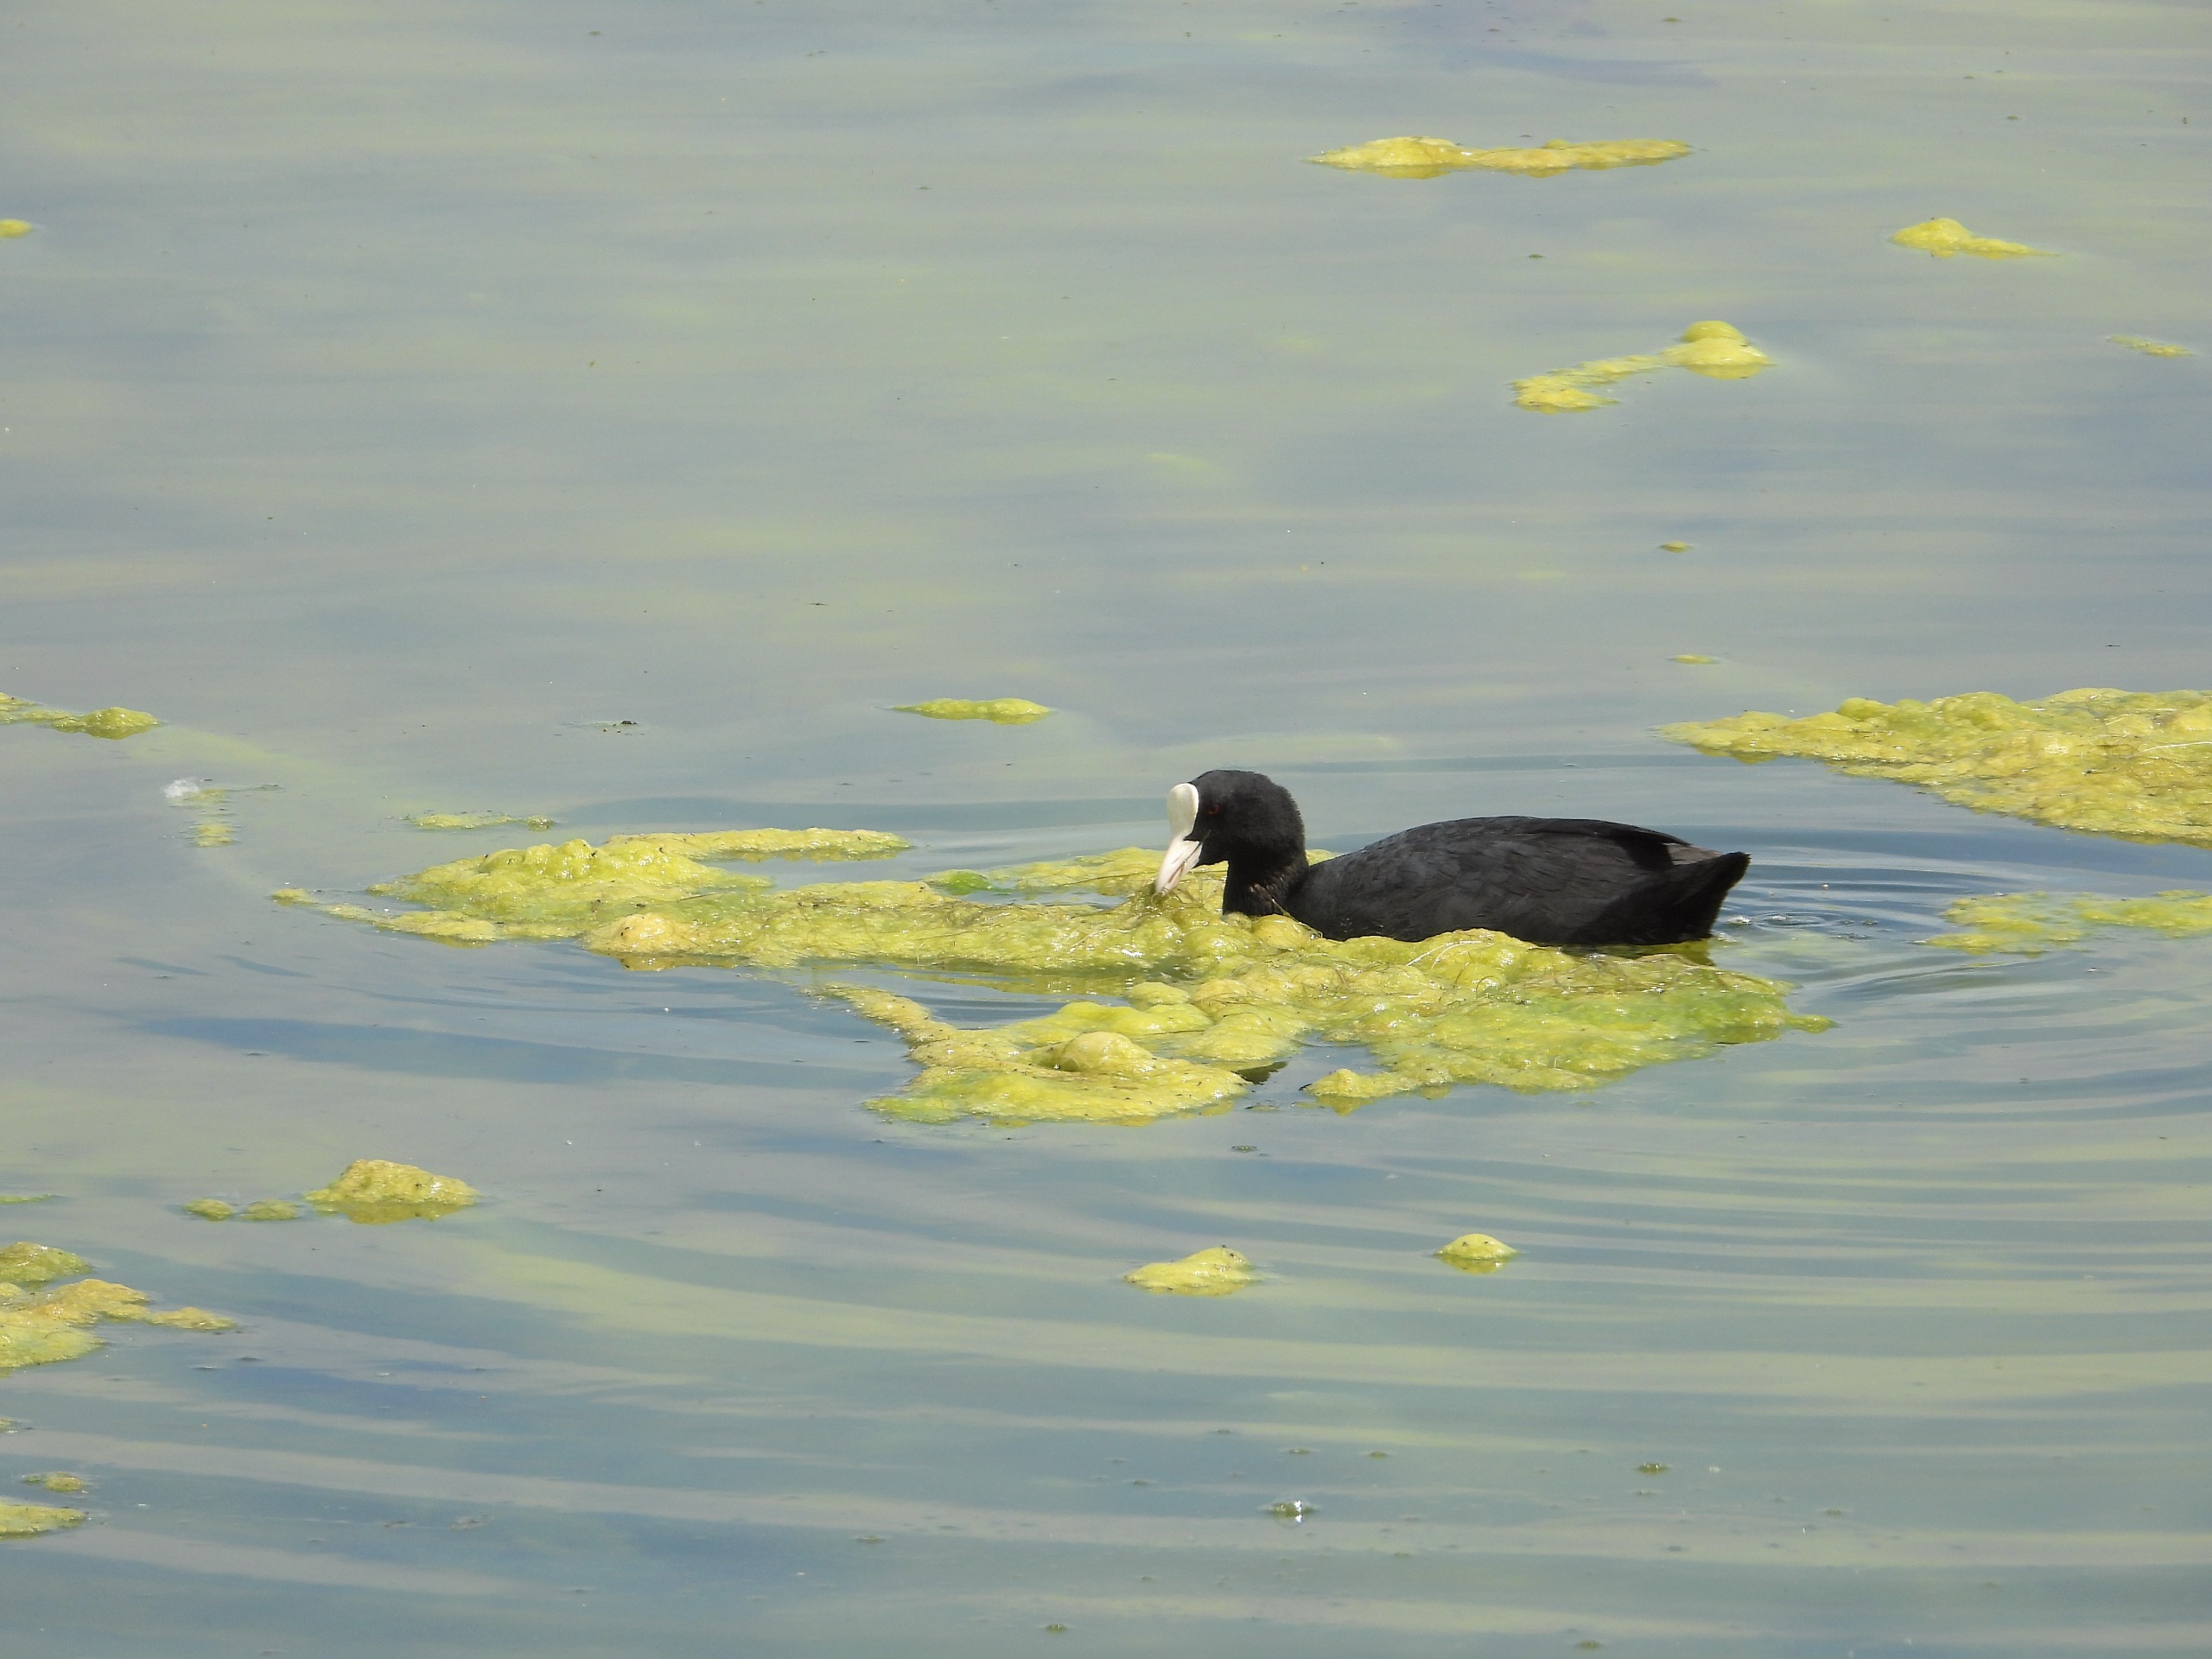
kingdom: Animalia
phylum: Chordata
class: Aves
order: Gruiformes
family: Rallidae
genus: Fulica
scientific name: Fulica atra
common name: Blishøne
